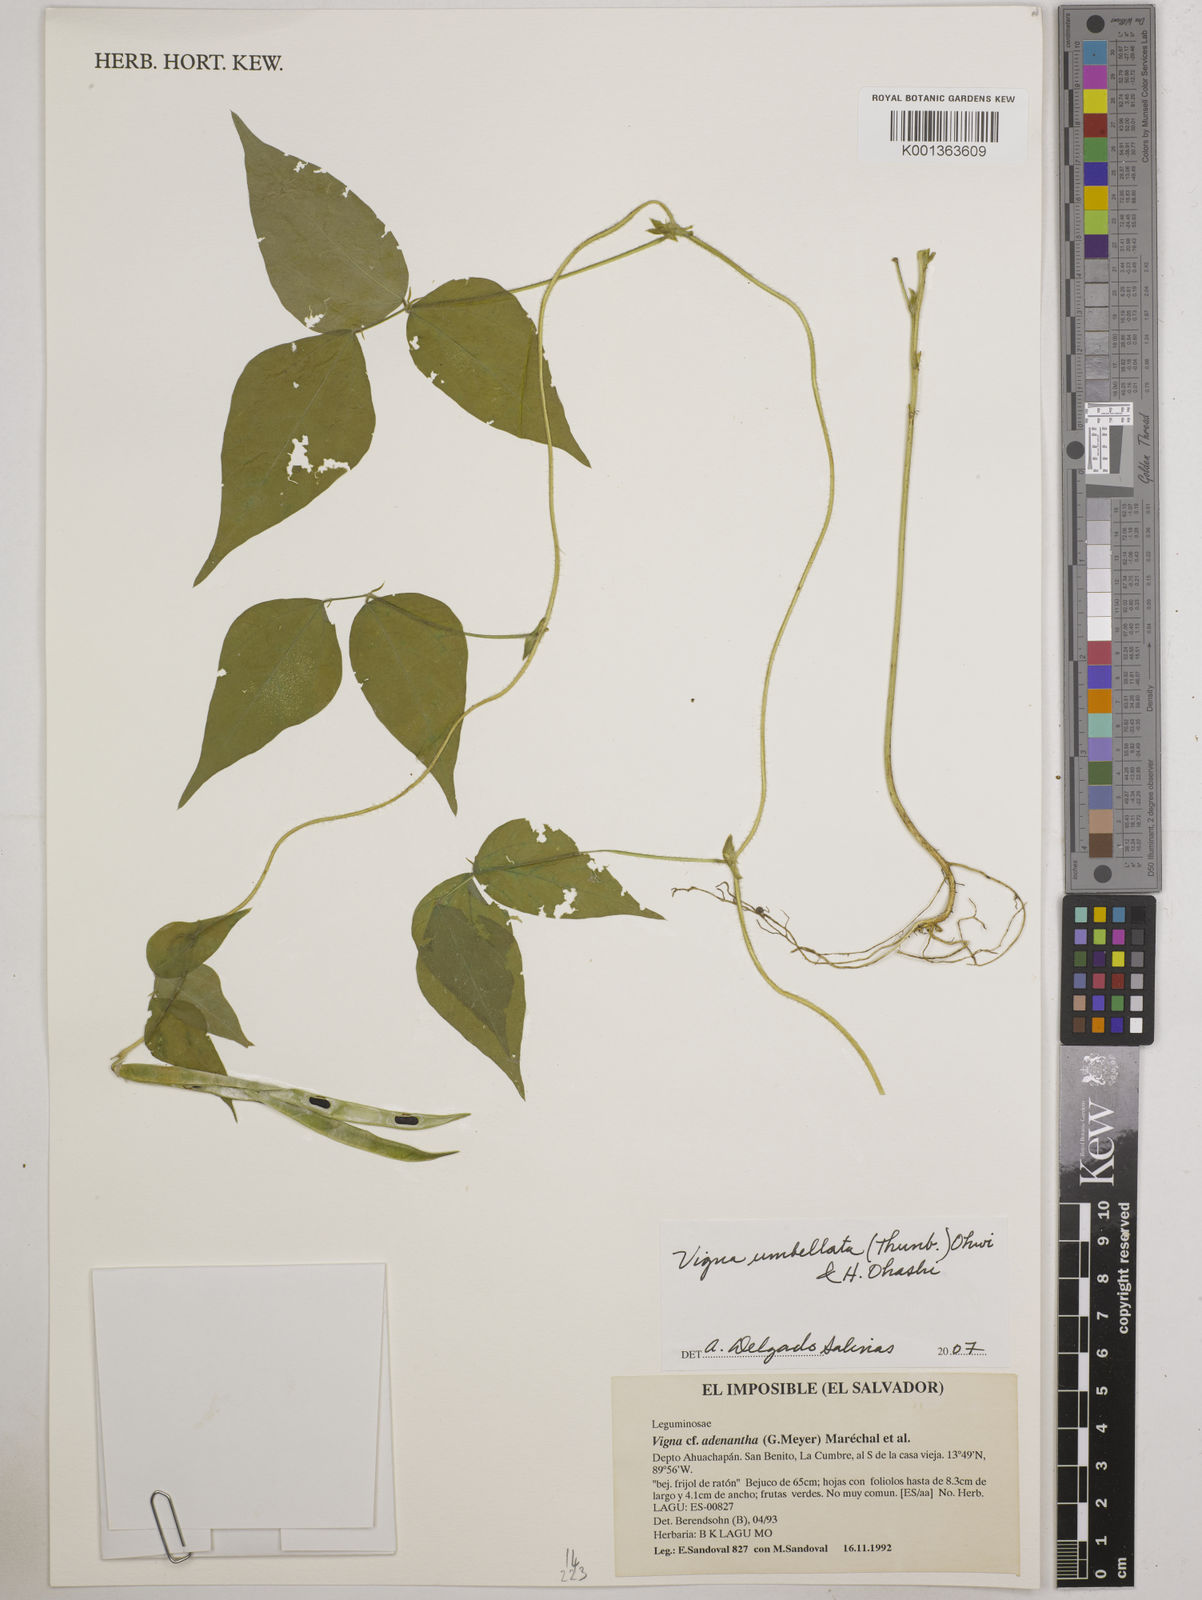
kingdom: Plantae
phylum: Tracheophyta
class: Magnoliopsida
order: Fabales
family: Fabaceae
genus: Vigna
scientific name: Vigna umbellata
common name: Oriental-bean
